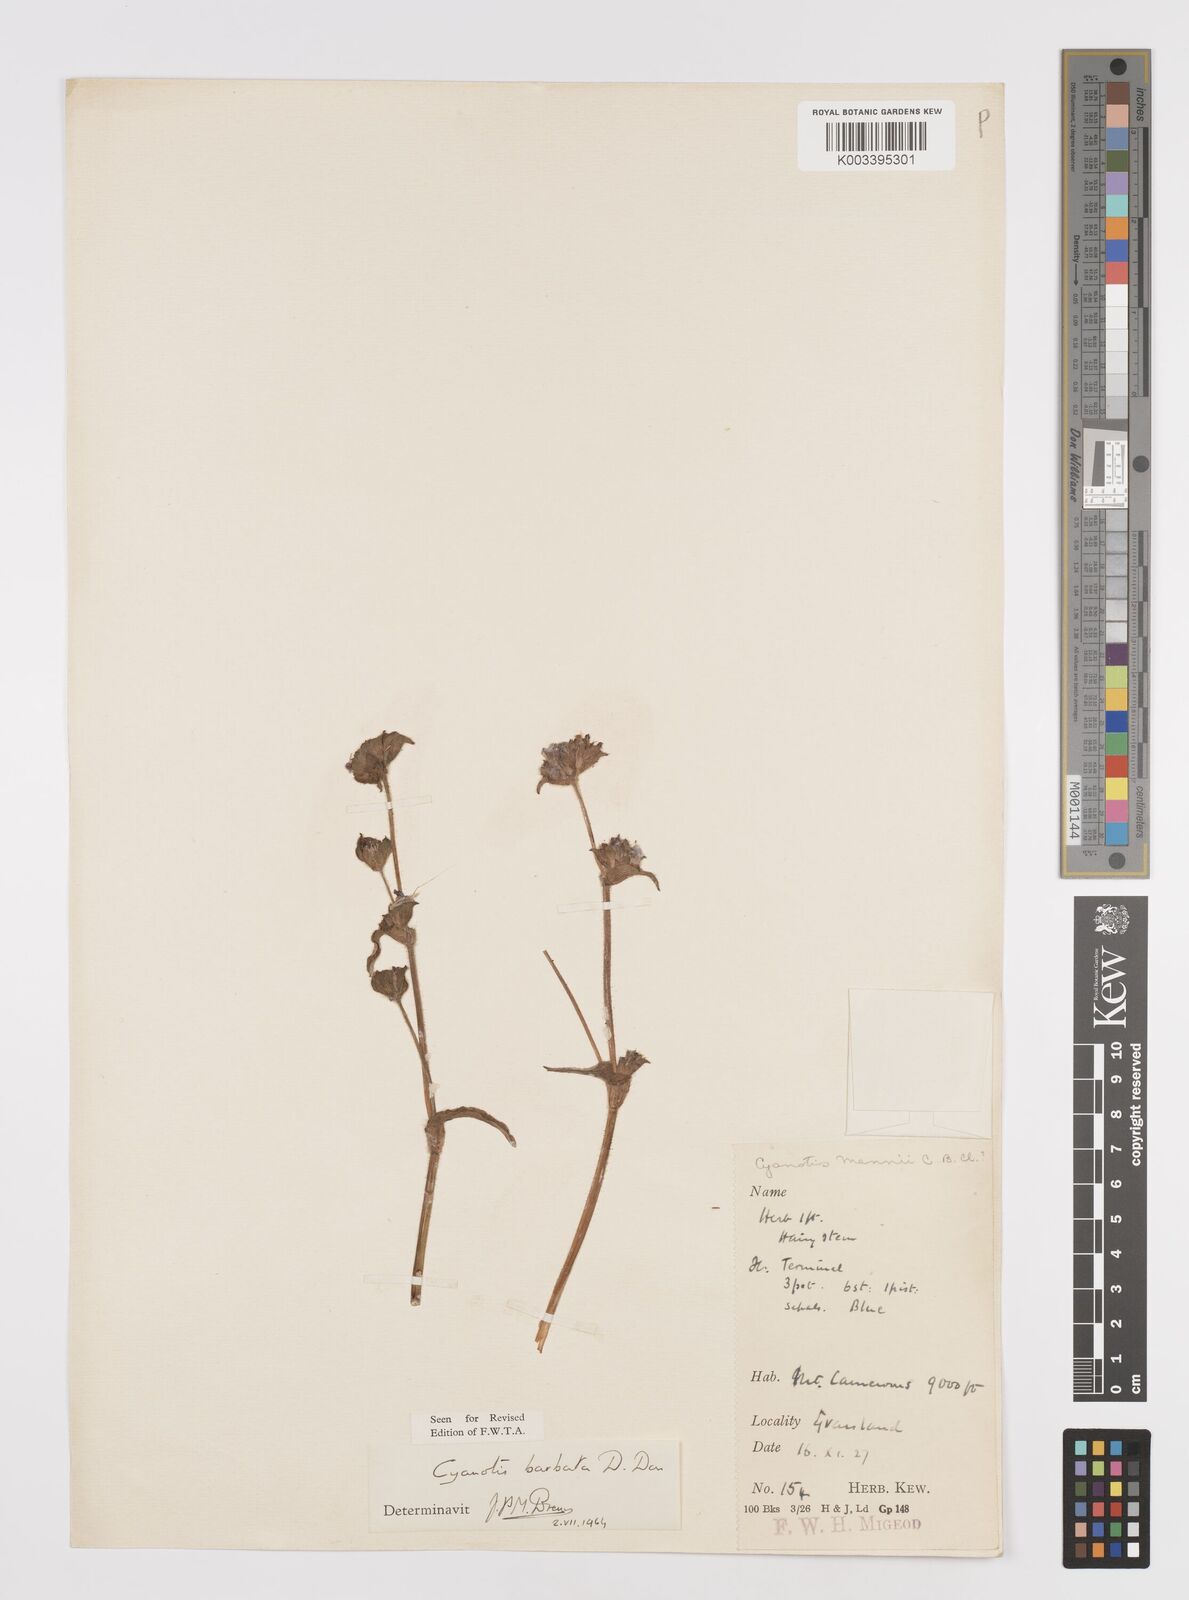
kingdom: Plantae
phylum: Tracheophyta
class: Liliopsida
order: Commelinales
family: Commelinaceae
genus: Cyanotis
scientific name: Cyanotis vaga
